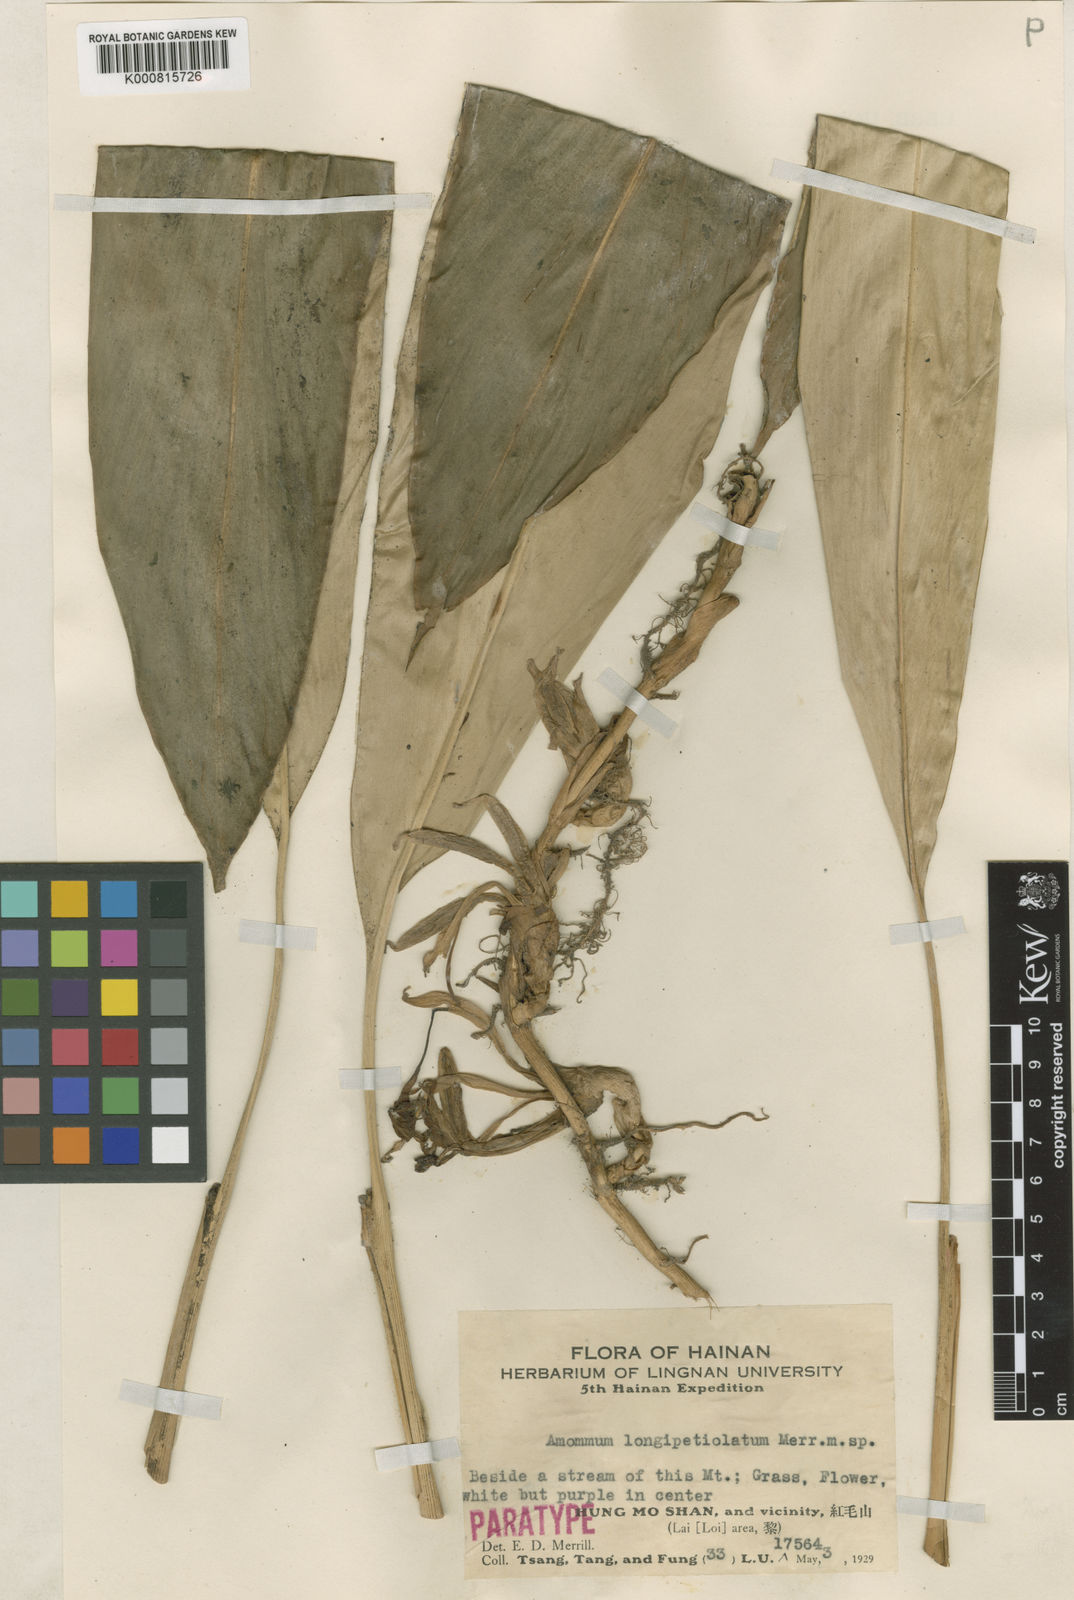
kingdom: Plantae
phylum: Tracheophyta
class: Liliopsida
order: Zingiberales
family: Zingiberaceae
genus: Amomum
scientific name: Amomum longipetiolatum
